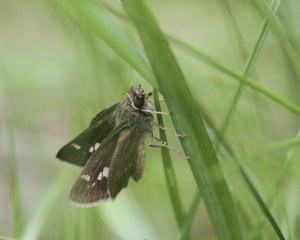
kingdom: Animalia
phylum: Arthropoda
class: Insecta
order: Lepidoptera
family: Hesperiidae
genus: Vernia
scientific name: Vernia verna
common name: Little Glassywing
